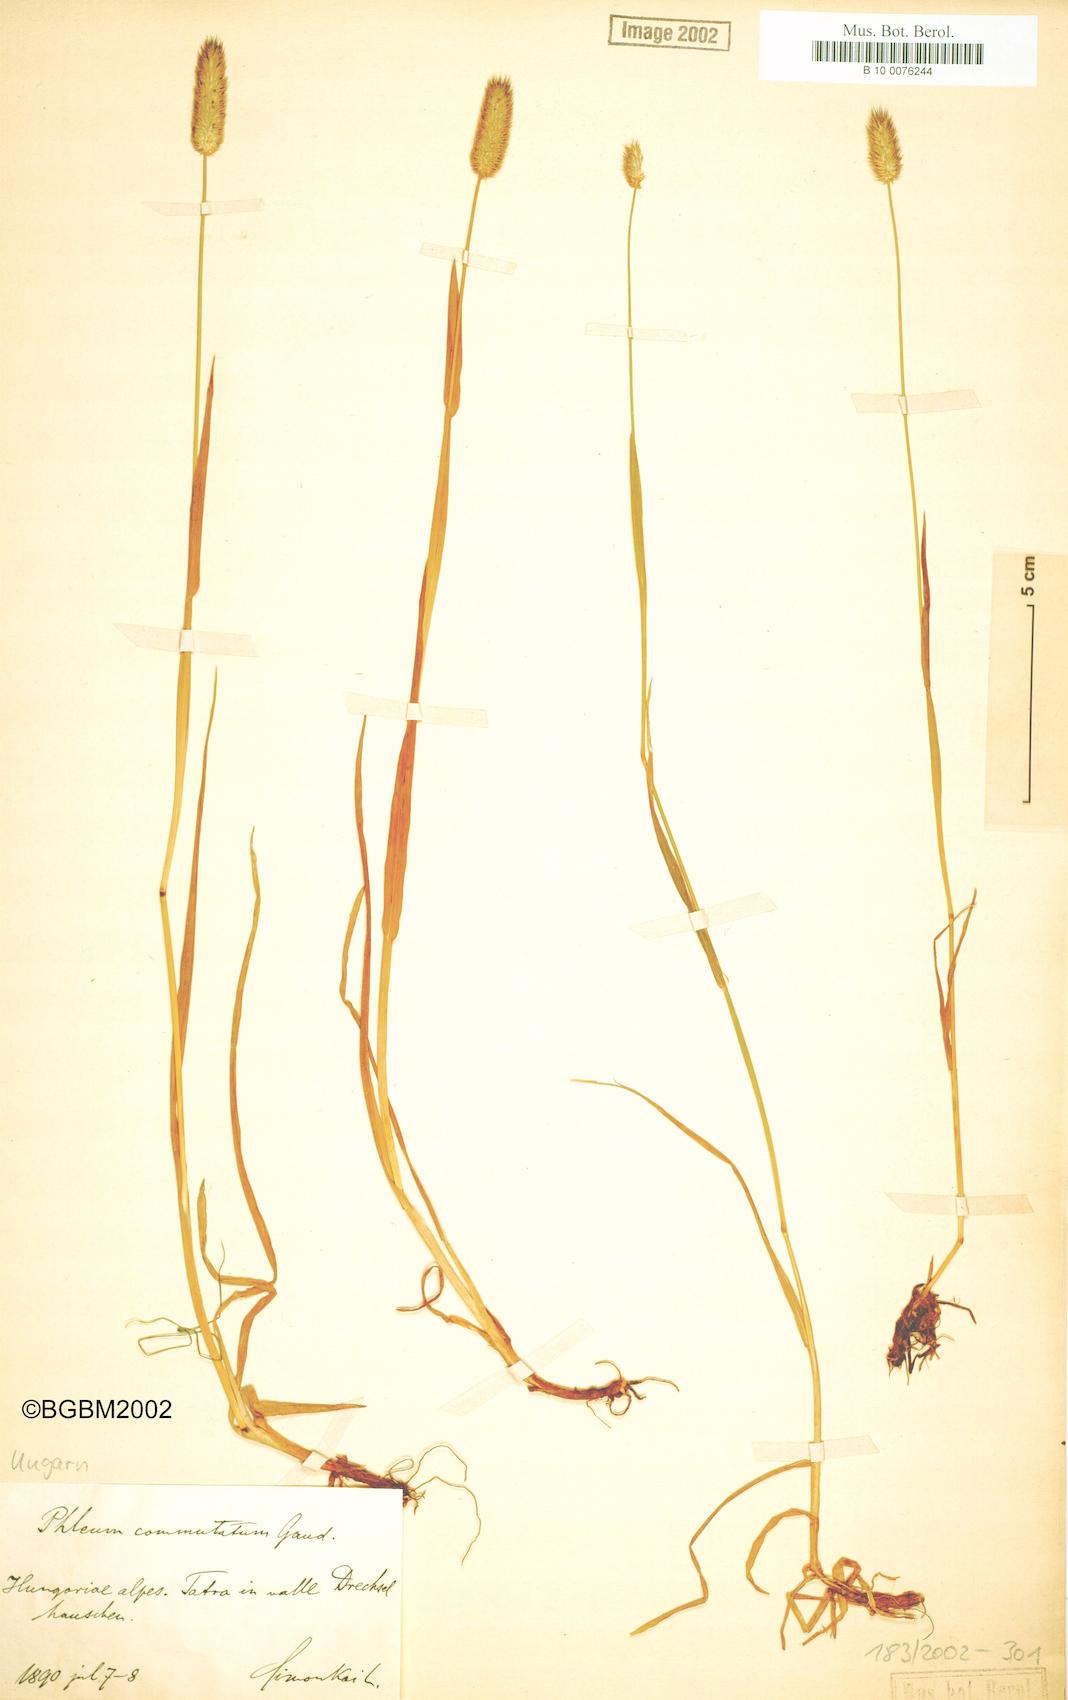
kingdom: Plantae
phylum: Tracheophyta
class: Liliopsida
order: Poales
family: Poaceae
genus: Phleum
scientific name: Phleum alpinum
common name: Alpine cat's-tail
